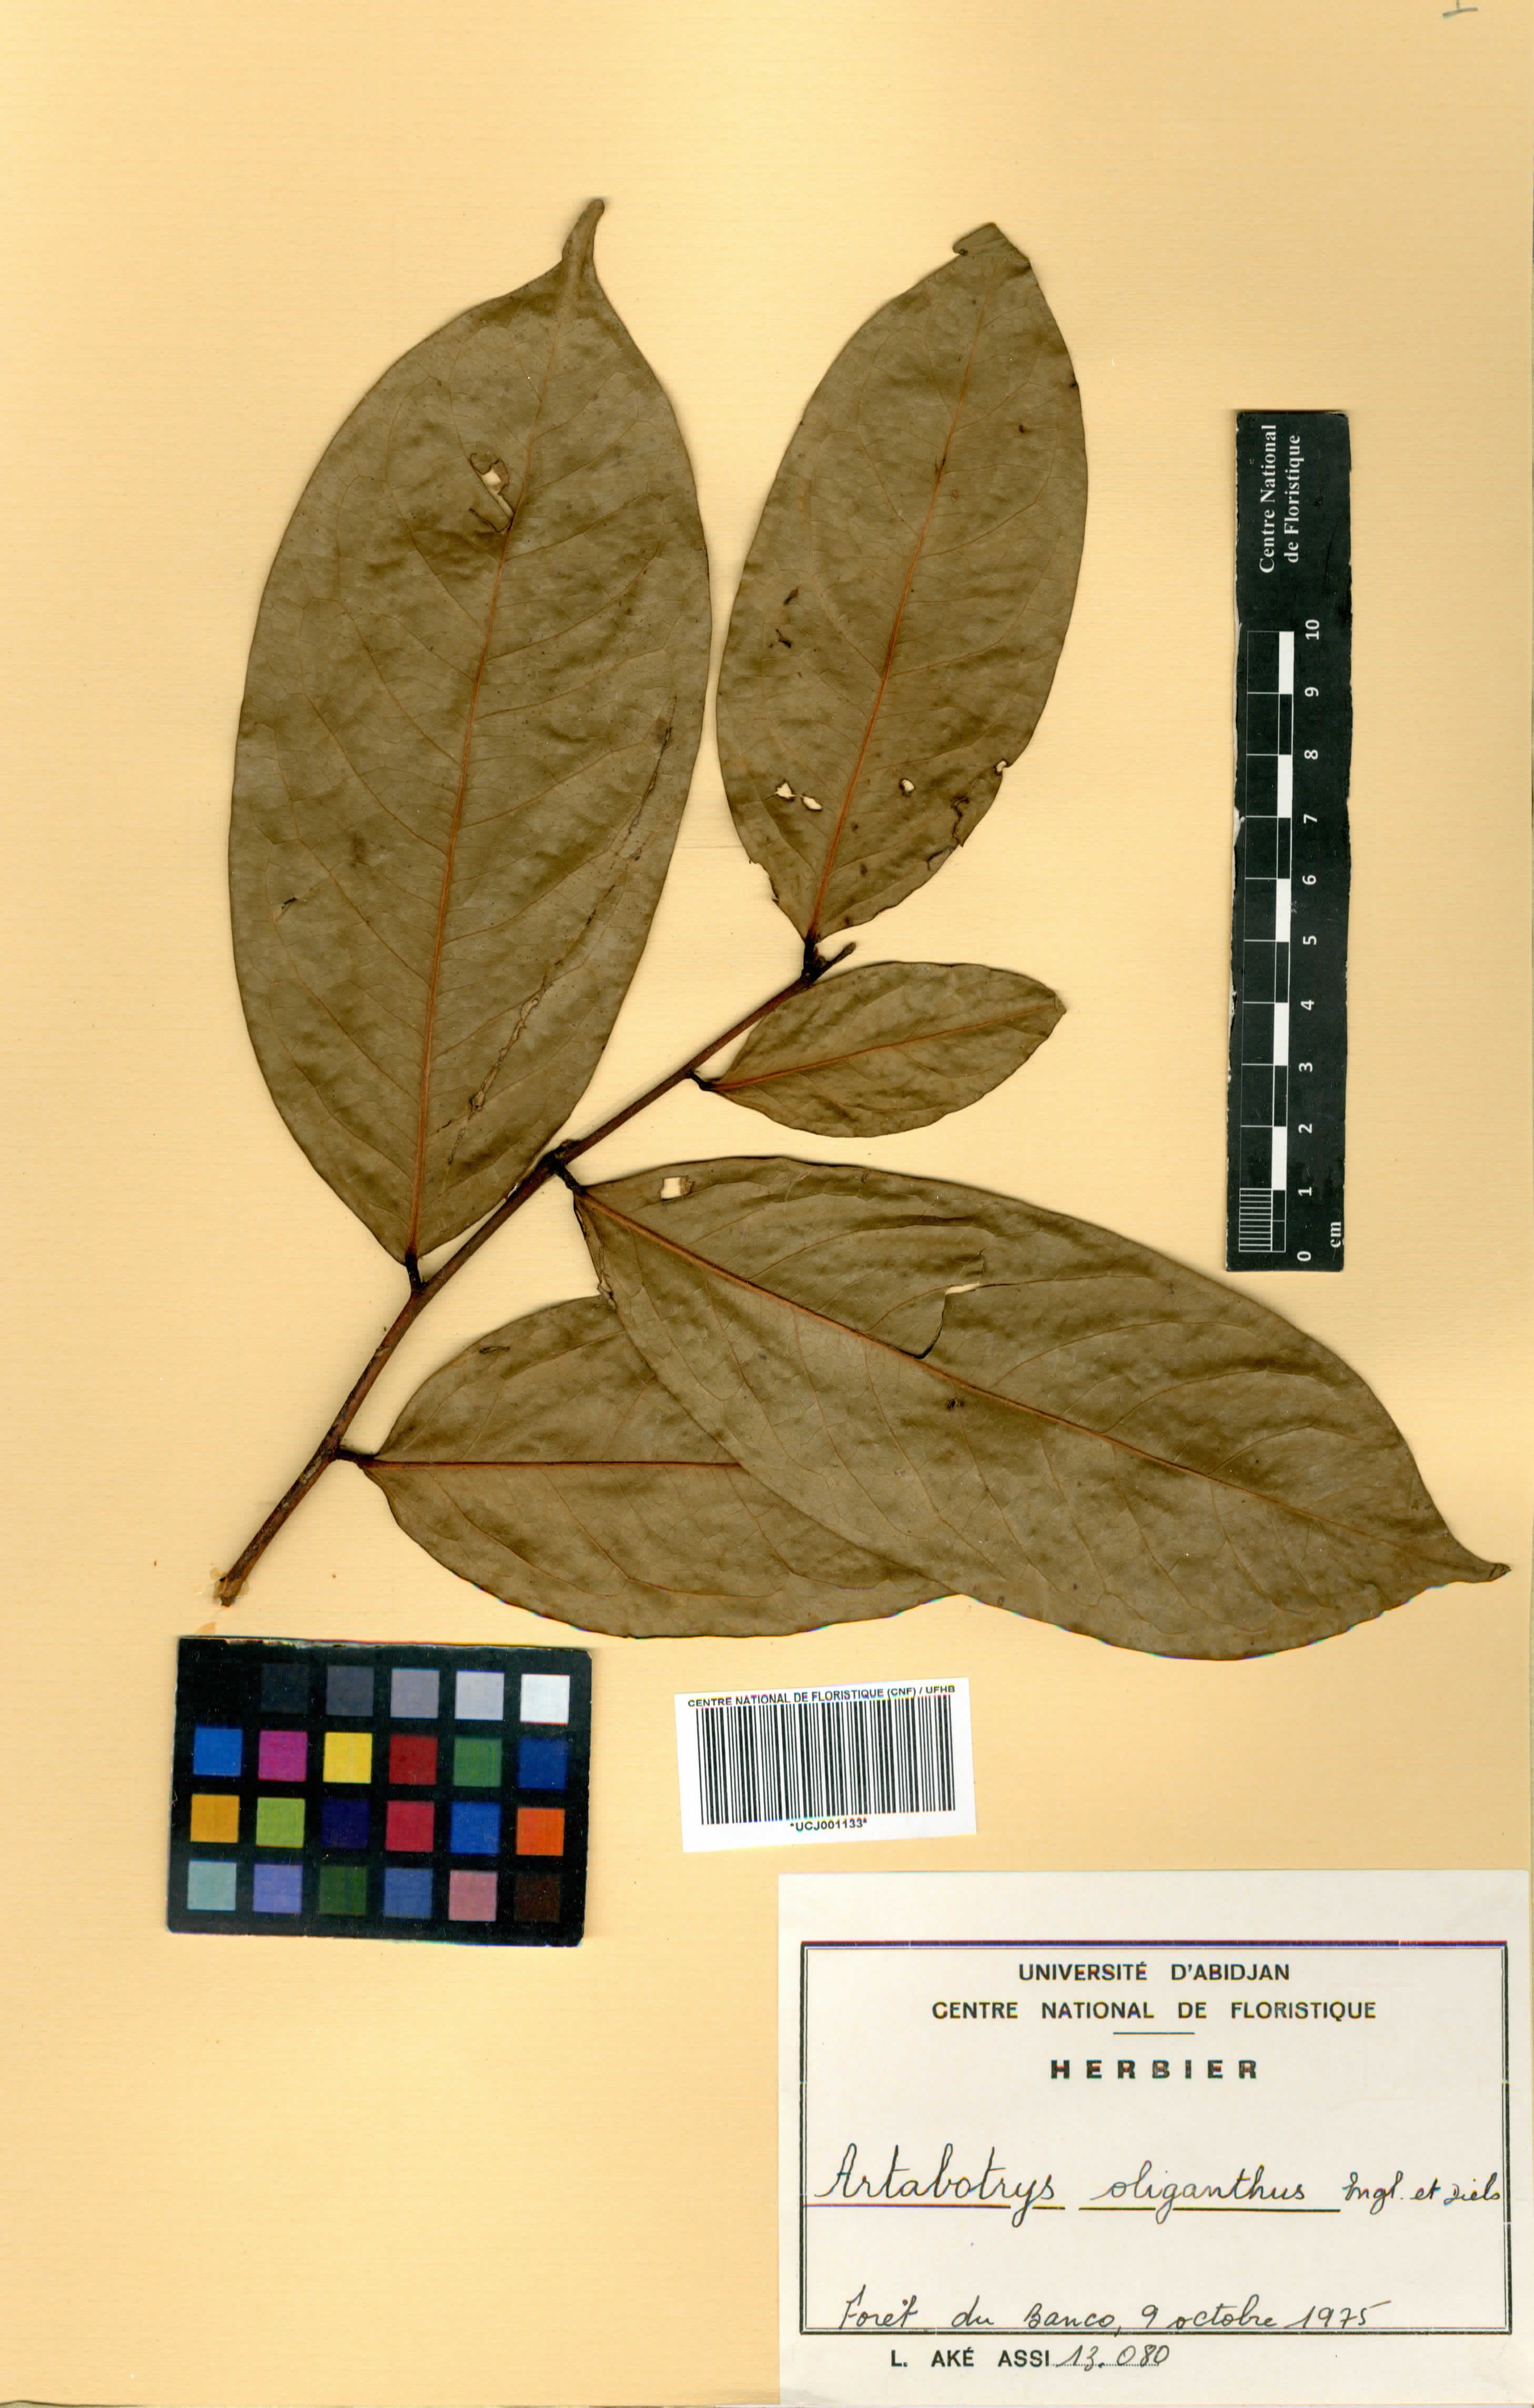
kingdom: Plantae
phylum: Tracheophyta
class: Magnoliopsida
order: Magnoliales
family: Annonaceae
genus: Artabotrys
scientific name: Artabotrys oliganthus
